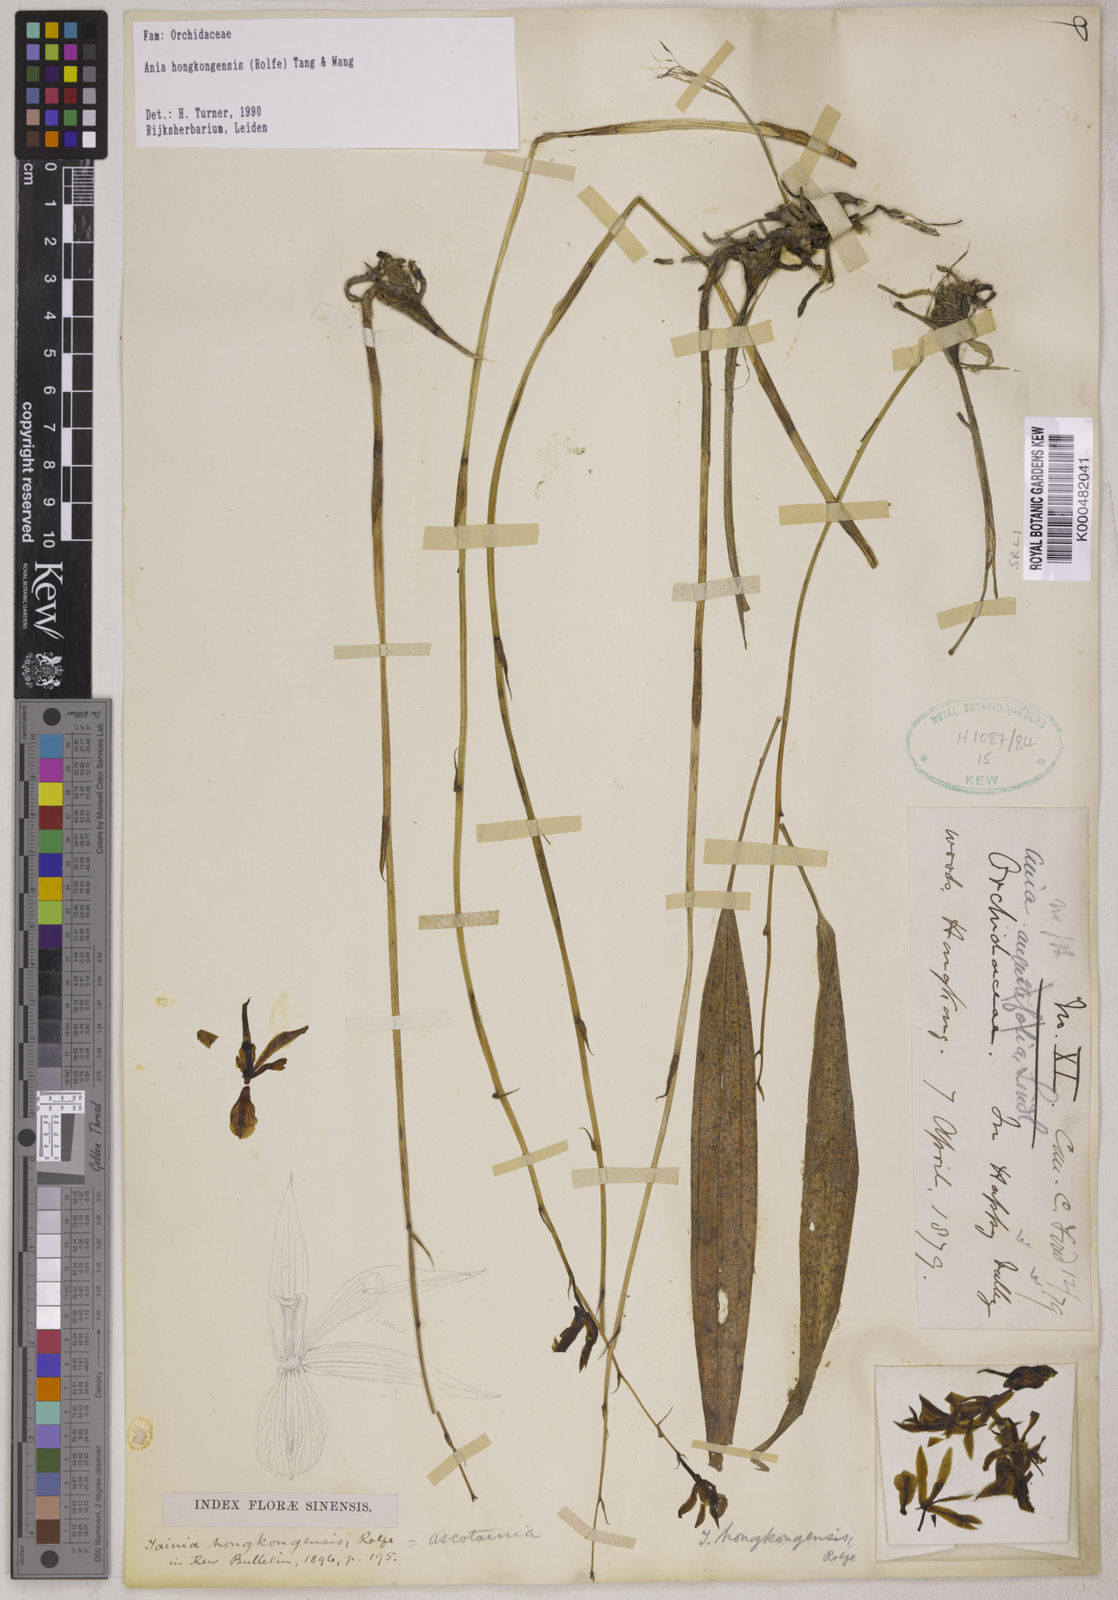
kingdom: Plantae
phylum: Tracheophyta
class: Liliopsida
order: Asparagales
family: Orchidaceae
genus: Ania
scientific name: Ania hongkongensis
